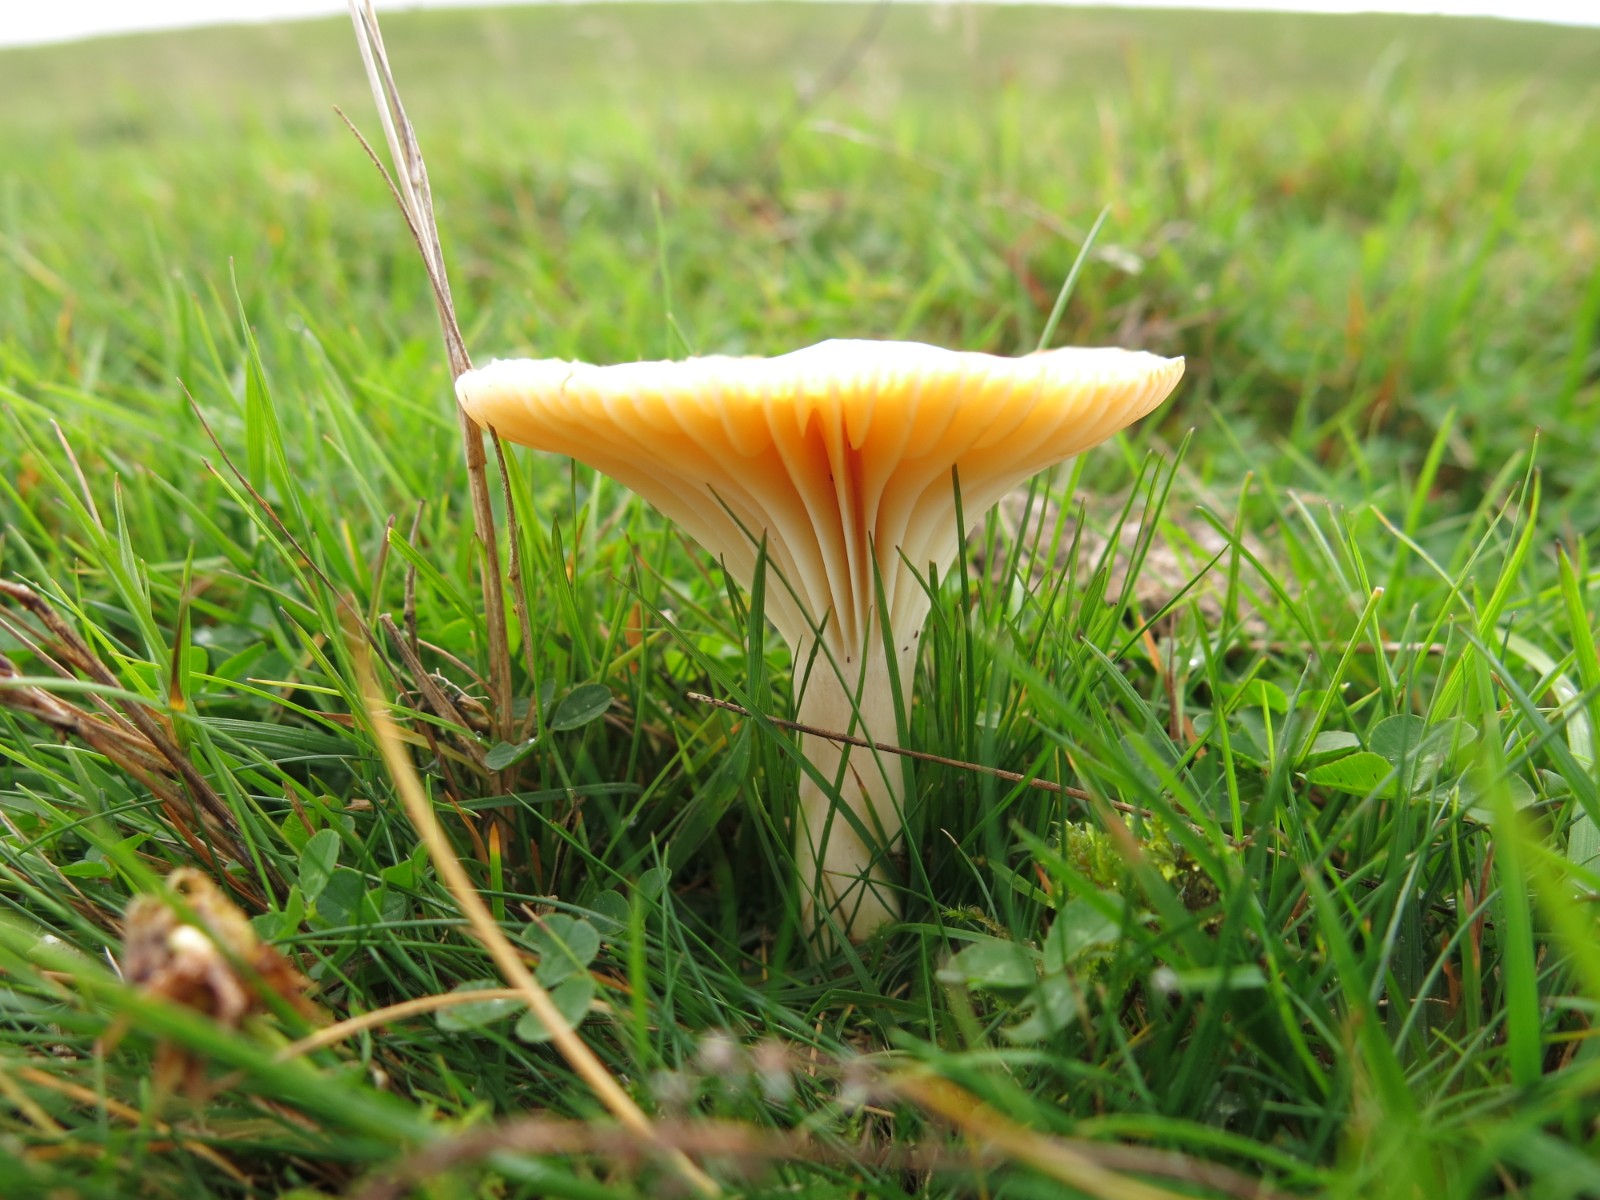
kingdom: Fungi
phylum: Basidiomycota
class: Agaricomycetes
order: Agaricales
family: Hygrophoraceae
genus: Cuphophyllus
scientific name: Cuphophyllus pratensis
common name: eng-vokshat
